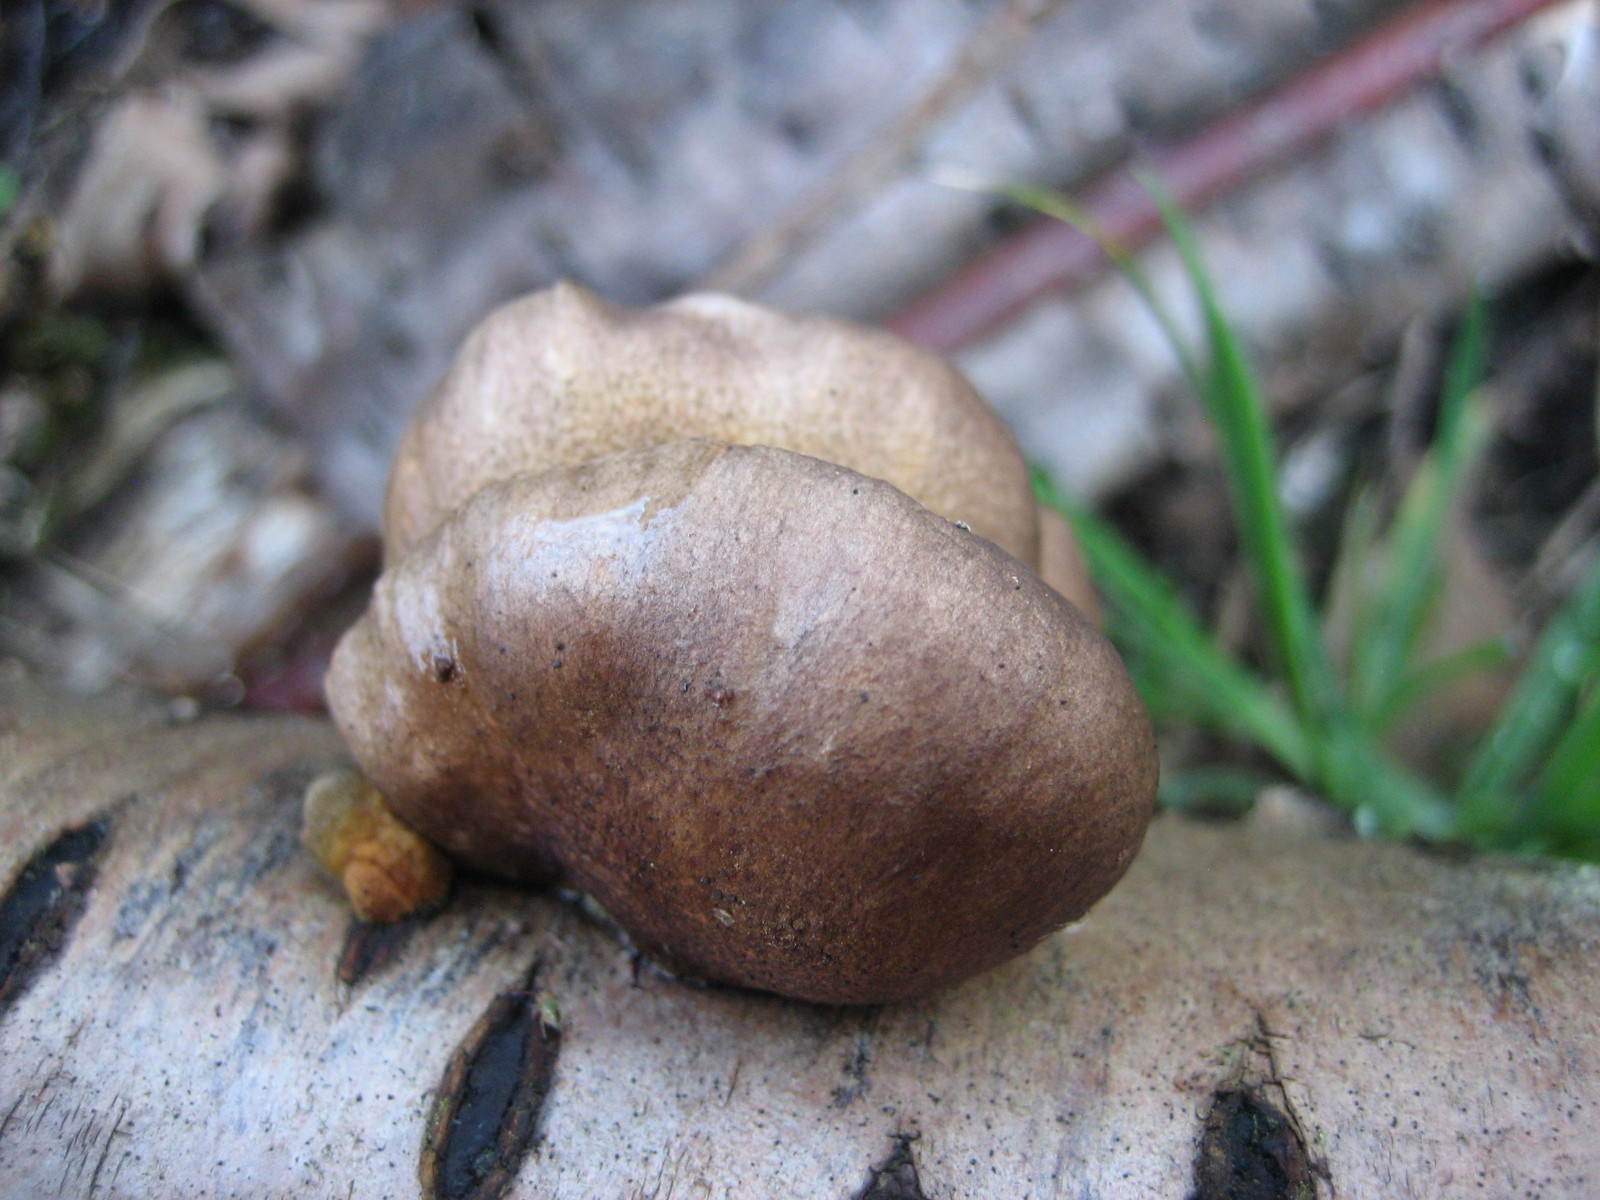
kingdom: Fungi
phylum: Basidiomycota
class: Agaricomycetes
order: Agaricales
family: Sarcomyxaceae
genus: Sarcomyxa
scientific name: Sarcomyxa serotina
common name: gummihat
